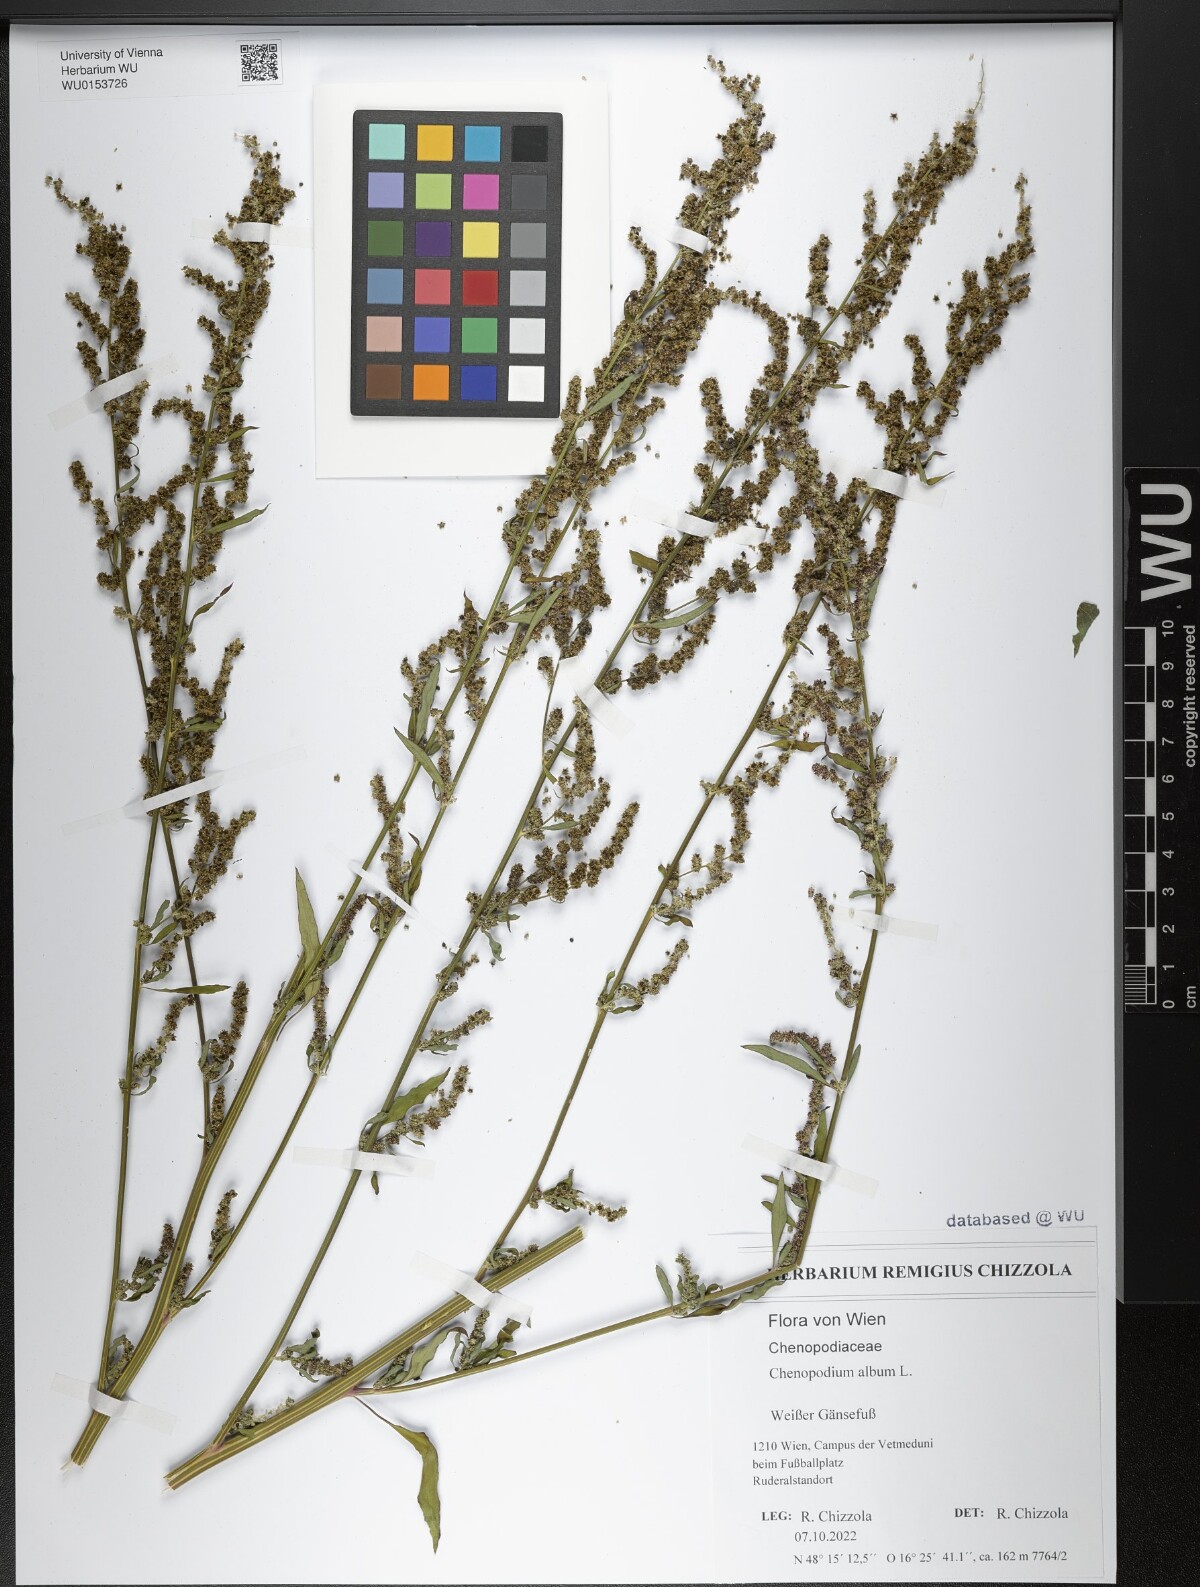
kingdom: Plantae
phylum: Tracheophyta
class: Magnoliopsida
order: Caryophyllales
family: Amaranthaceae
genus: Chenopodium
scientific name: Chenopodium album
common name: Fat-hen
